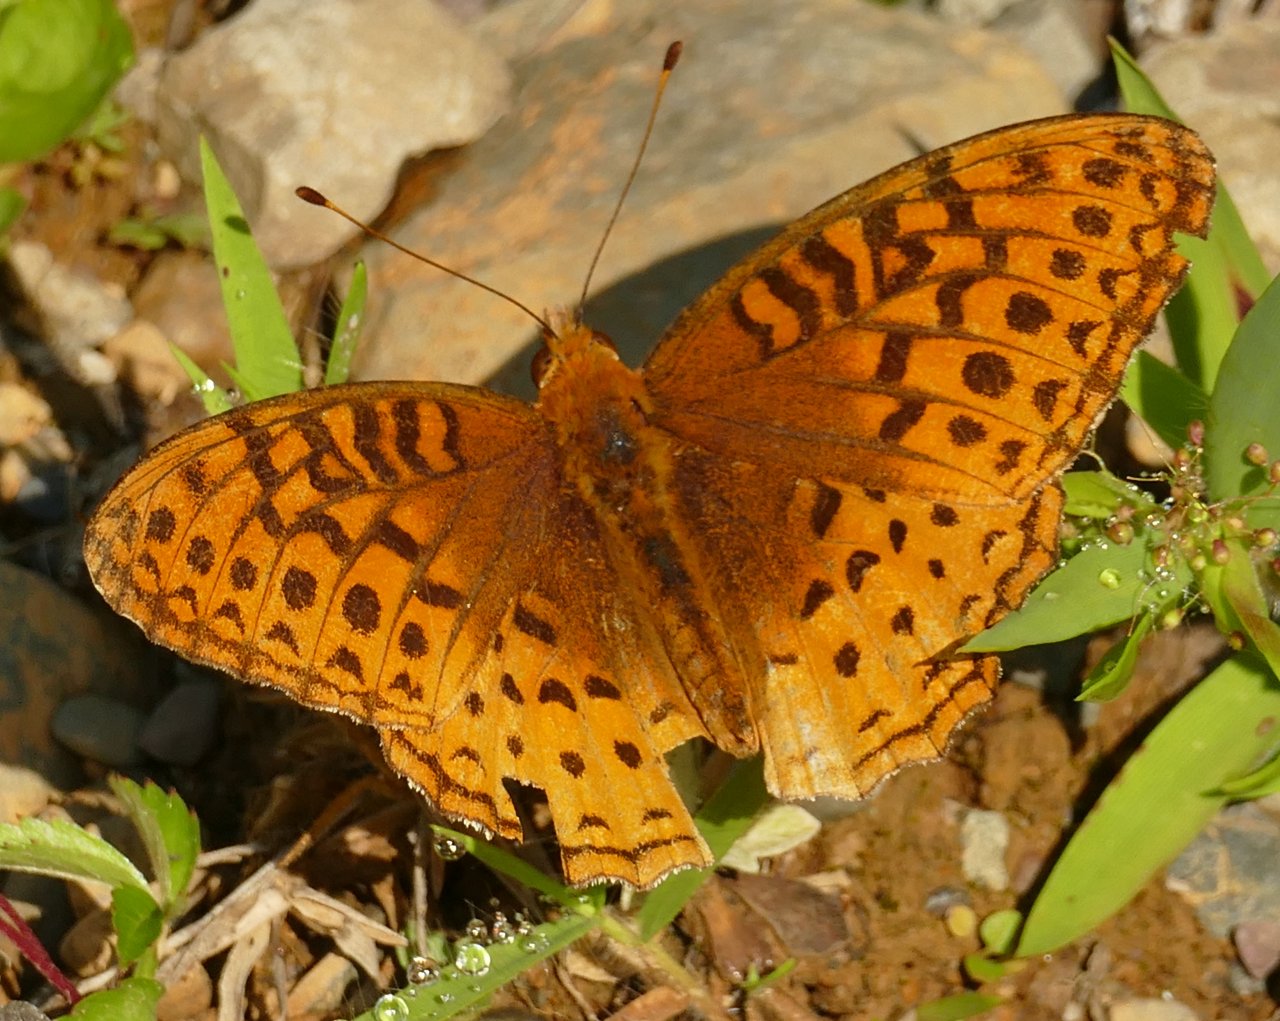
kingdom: Animalia
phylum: Arthropoda
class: Insecta
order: Lepidoptera
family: Nymphalidae
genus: Speyeria
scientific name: Speyeria cybele
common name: Great Spangled Fritillary
